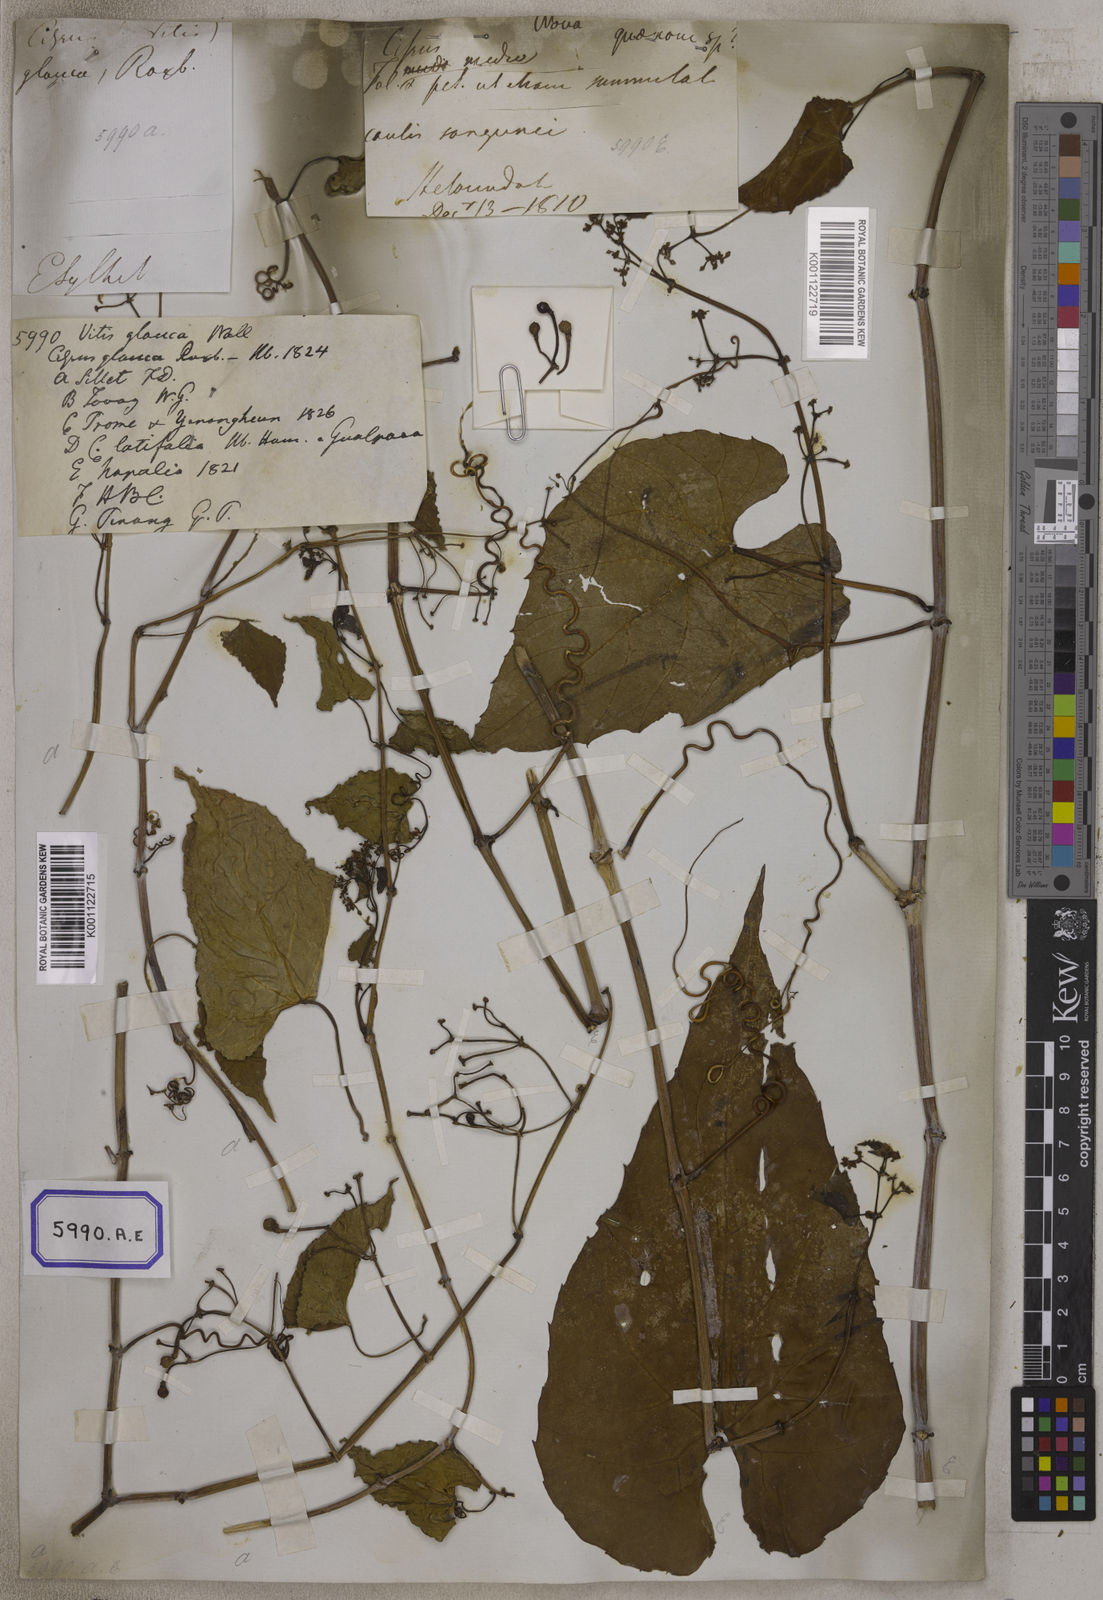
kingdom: Plantae
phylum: Tracheophyta
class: Magnoliopsida
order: Vitales
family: Vitaceae
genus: Cissus
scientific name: Cissus repens
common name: Cissus
